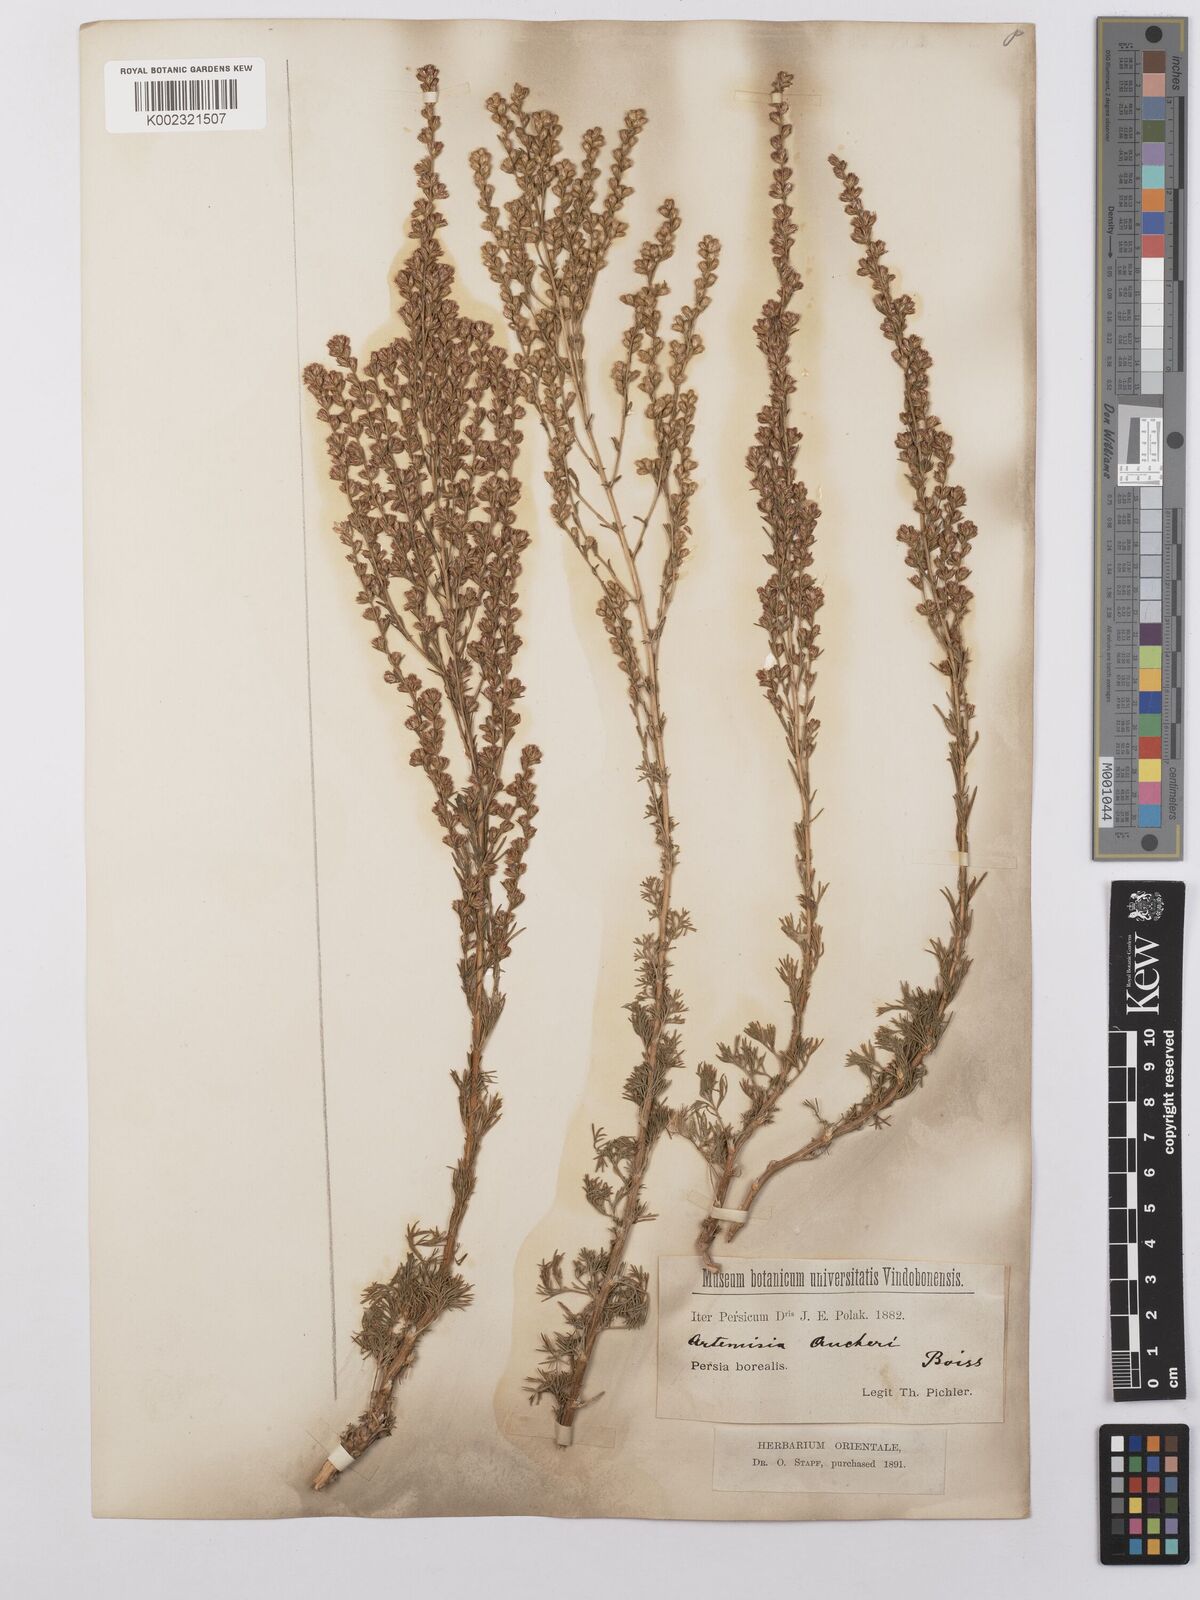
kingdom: Plantae
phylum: Tracheophyta
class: Magnoliopsida
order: Asterales
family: Asteraceae
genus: Artemisia
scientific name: Artemisia aucheri
